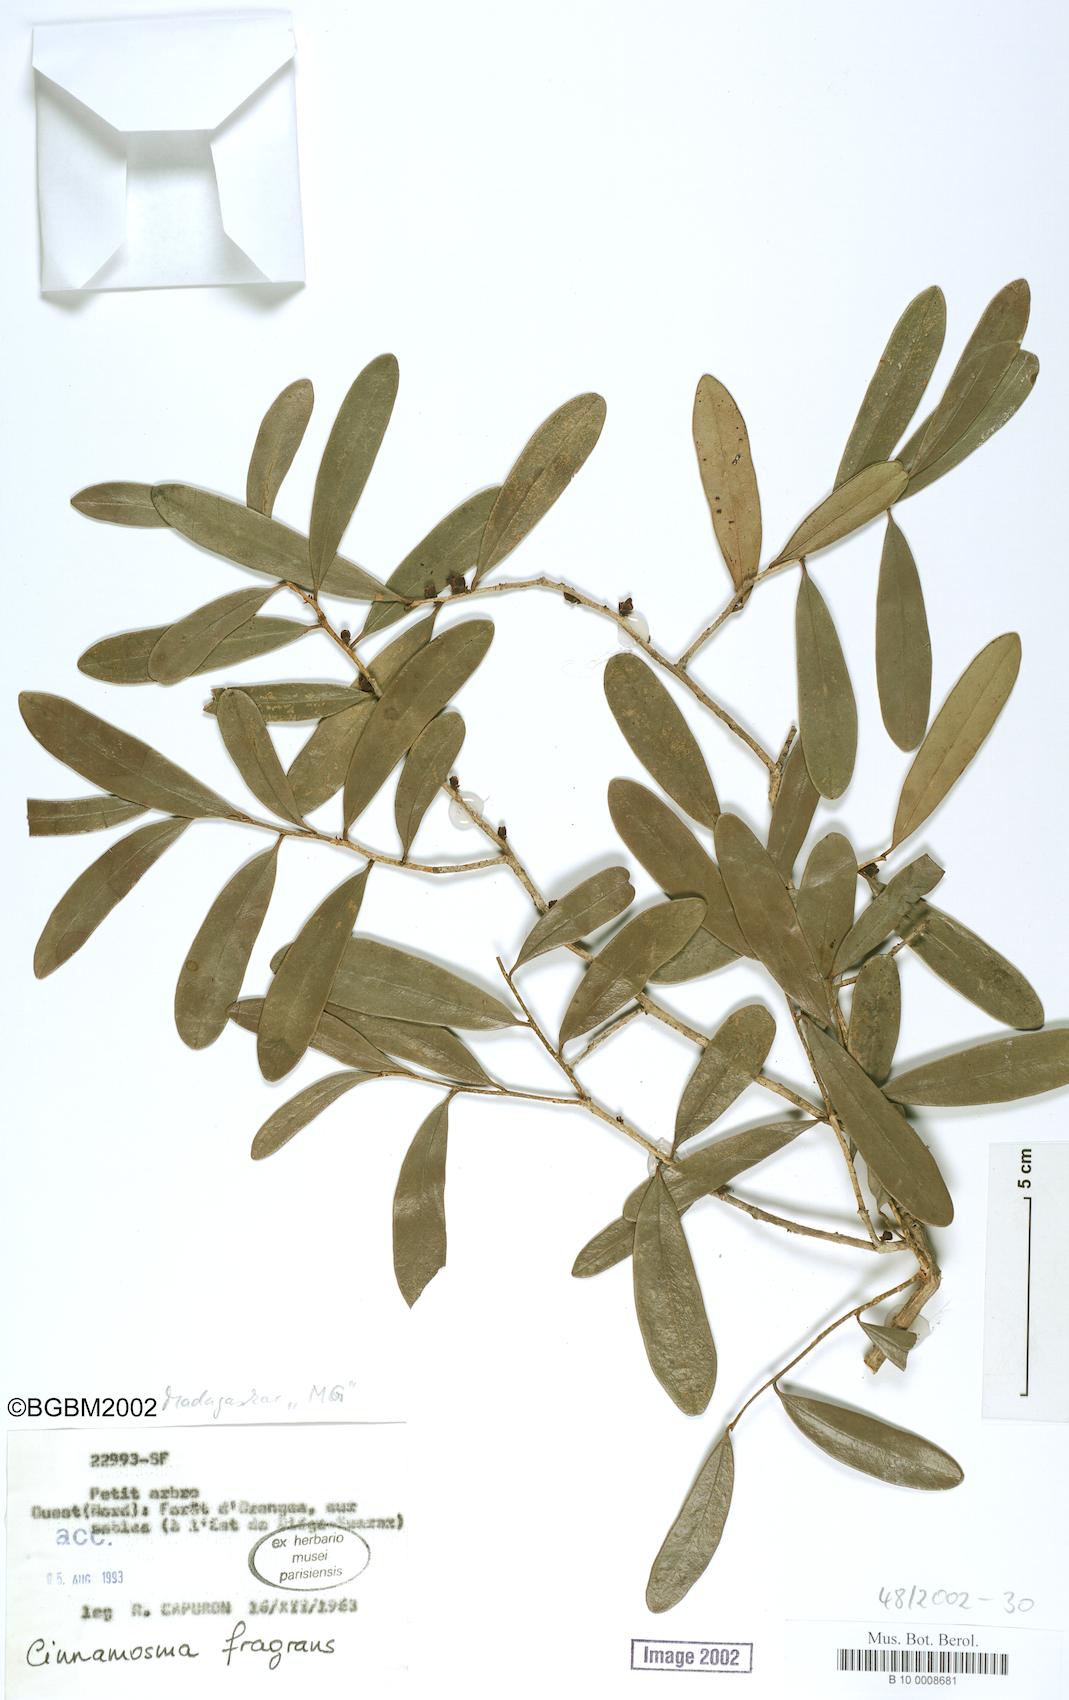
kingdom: Plantae
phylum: Tracheophyta
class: Magnoliopsida
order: Canellales
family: Canellaceae
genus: Cinnamosma
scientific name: Cinnamosma fragrans
